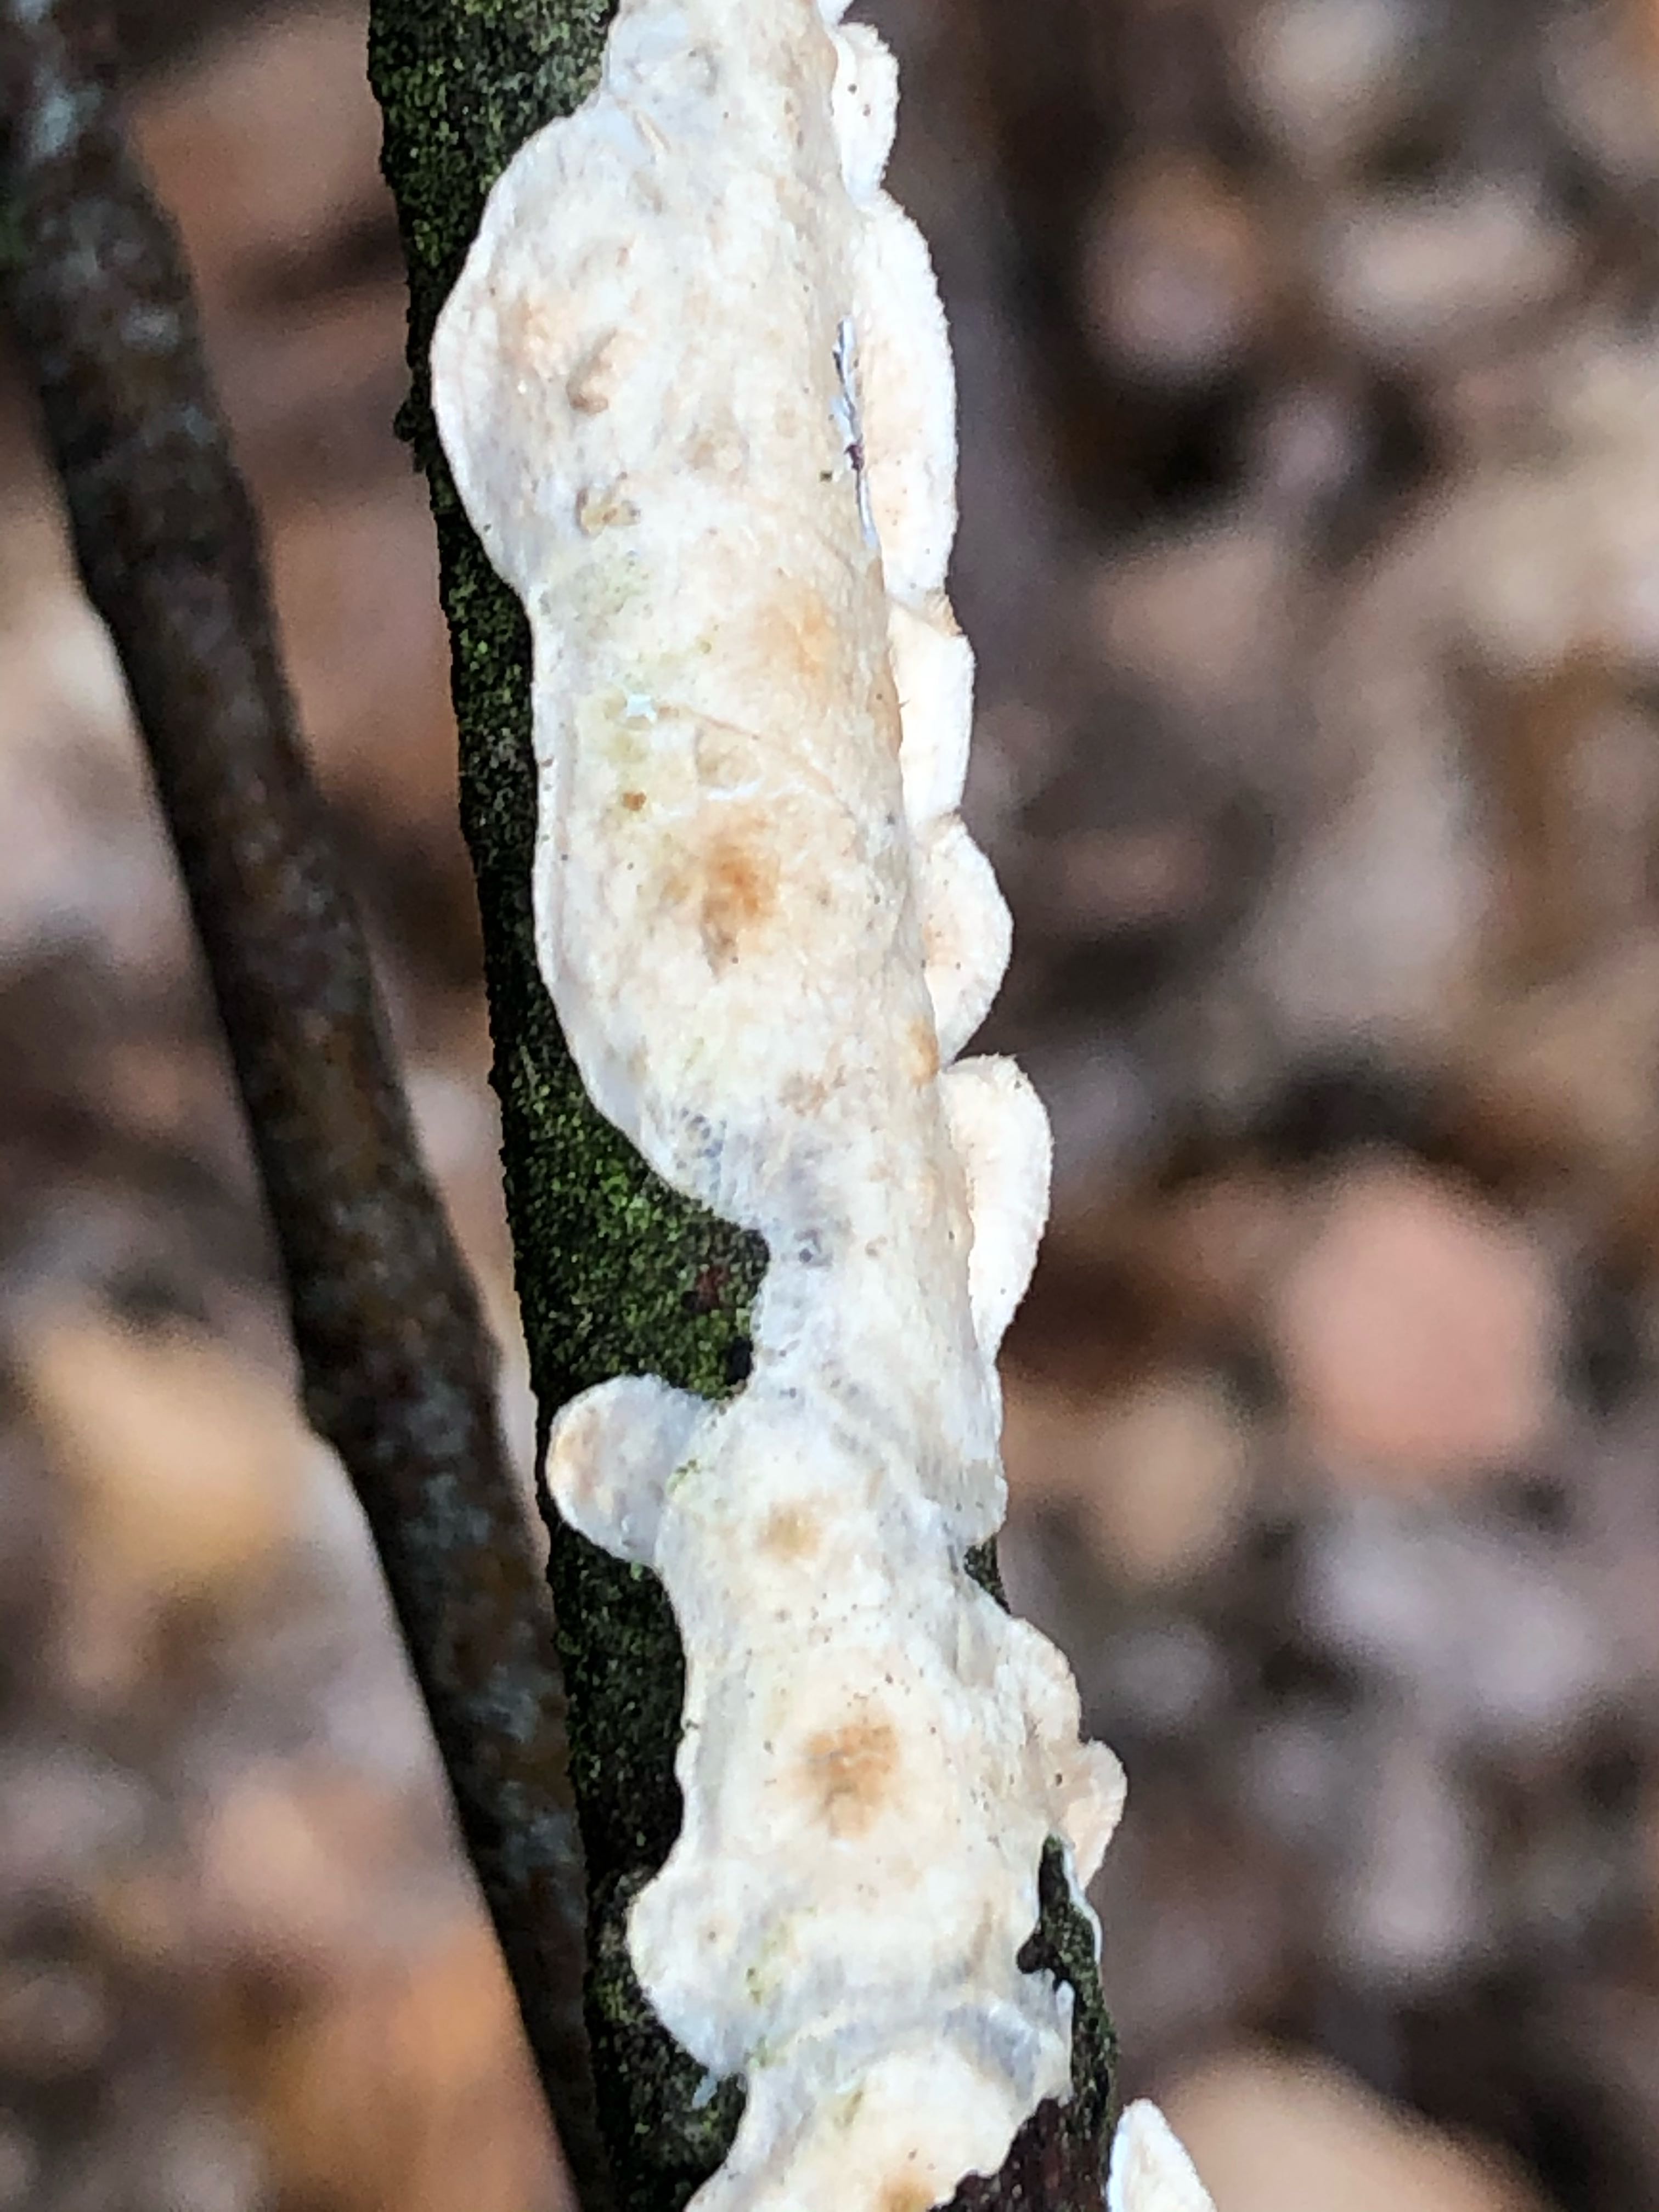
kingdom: Fungi
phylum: Basidiomycota
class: Agaricomycetes
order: Polyporales
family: Irpicaceae
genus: Byssomerulius
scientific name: Byssomerulius corium
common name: læder-åresvamp
